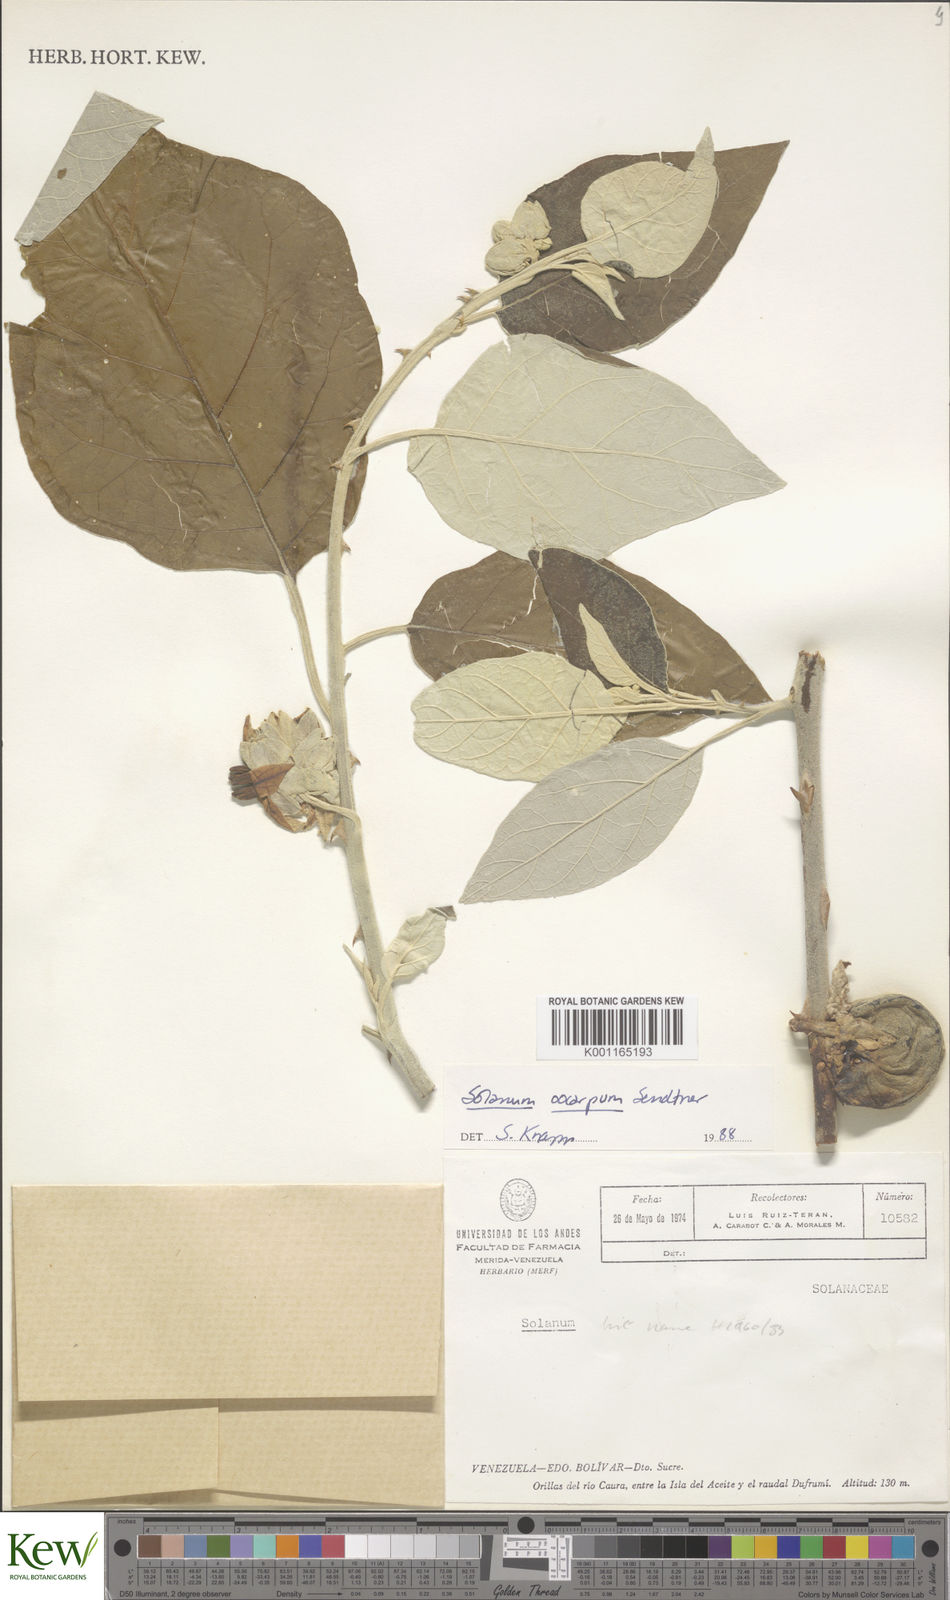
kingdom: Plantae
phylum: Tracheophyta
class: Magnoliopsida
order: Solanales
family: Solanaceae
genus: Solanum
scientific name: Solanum oocarpum
